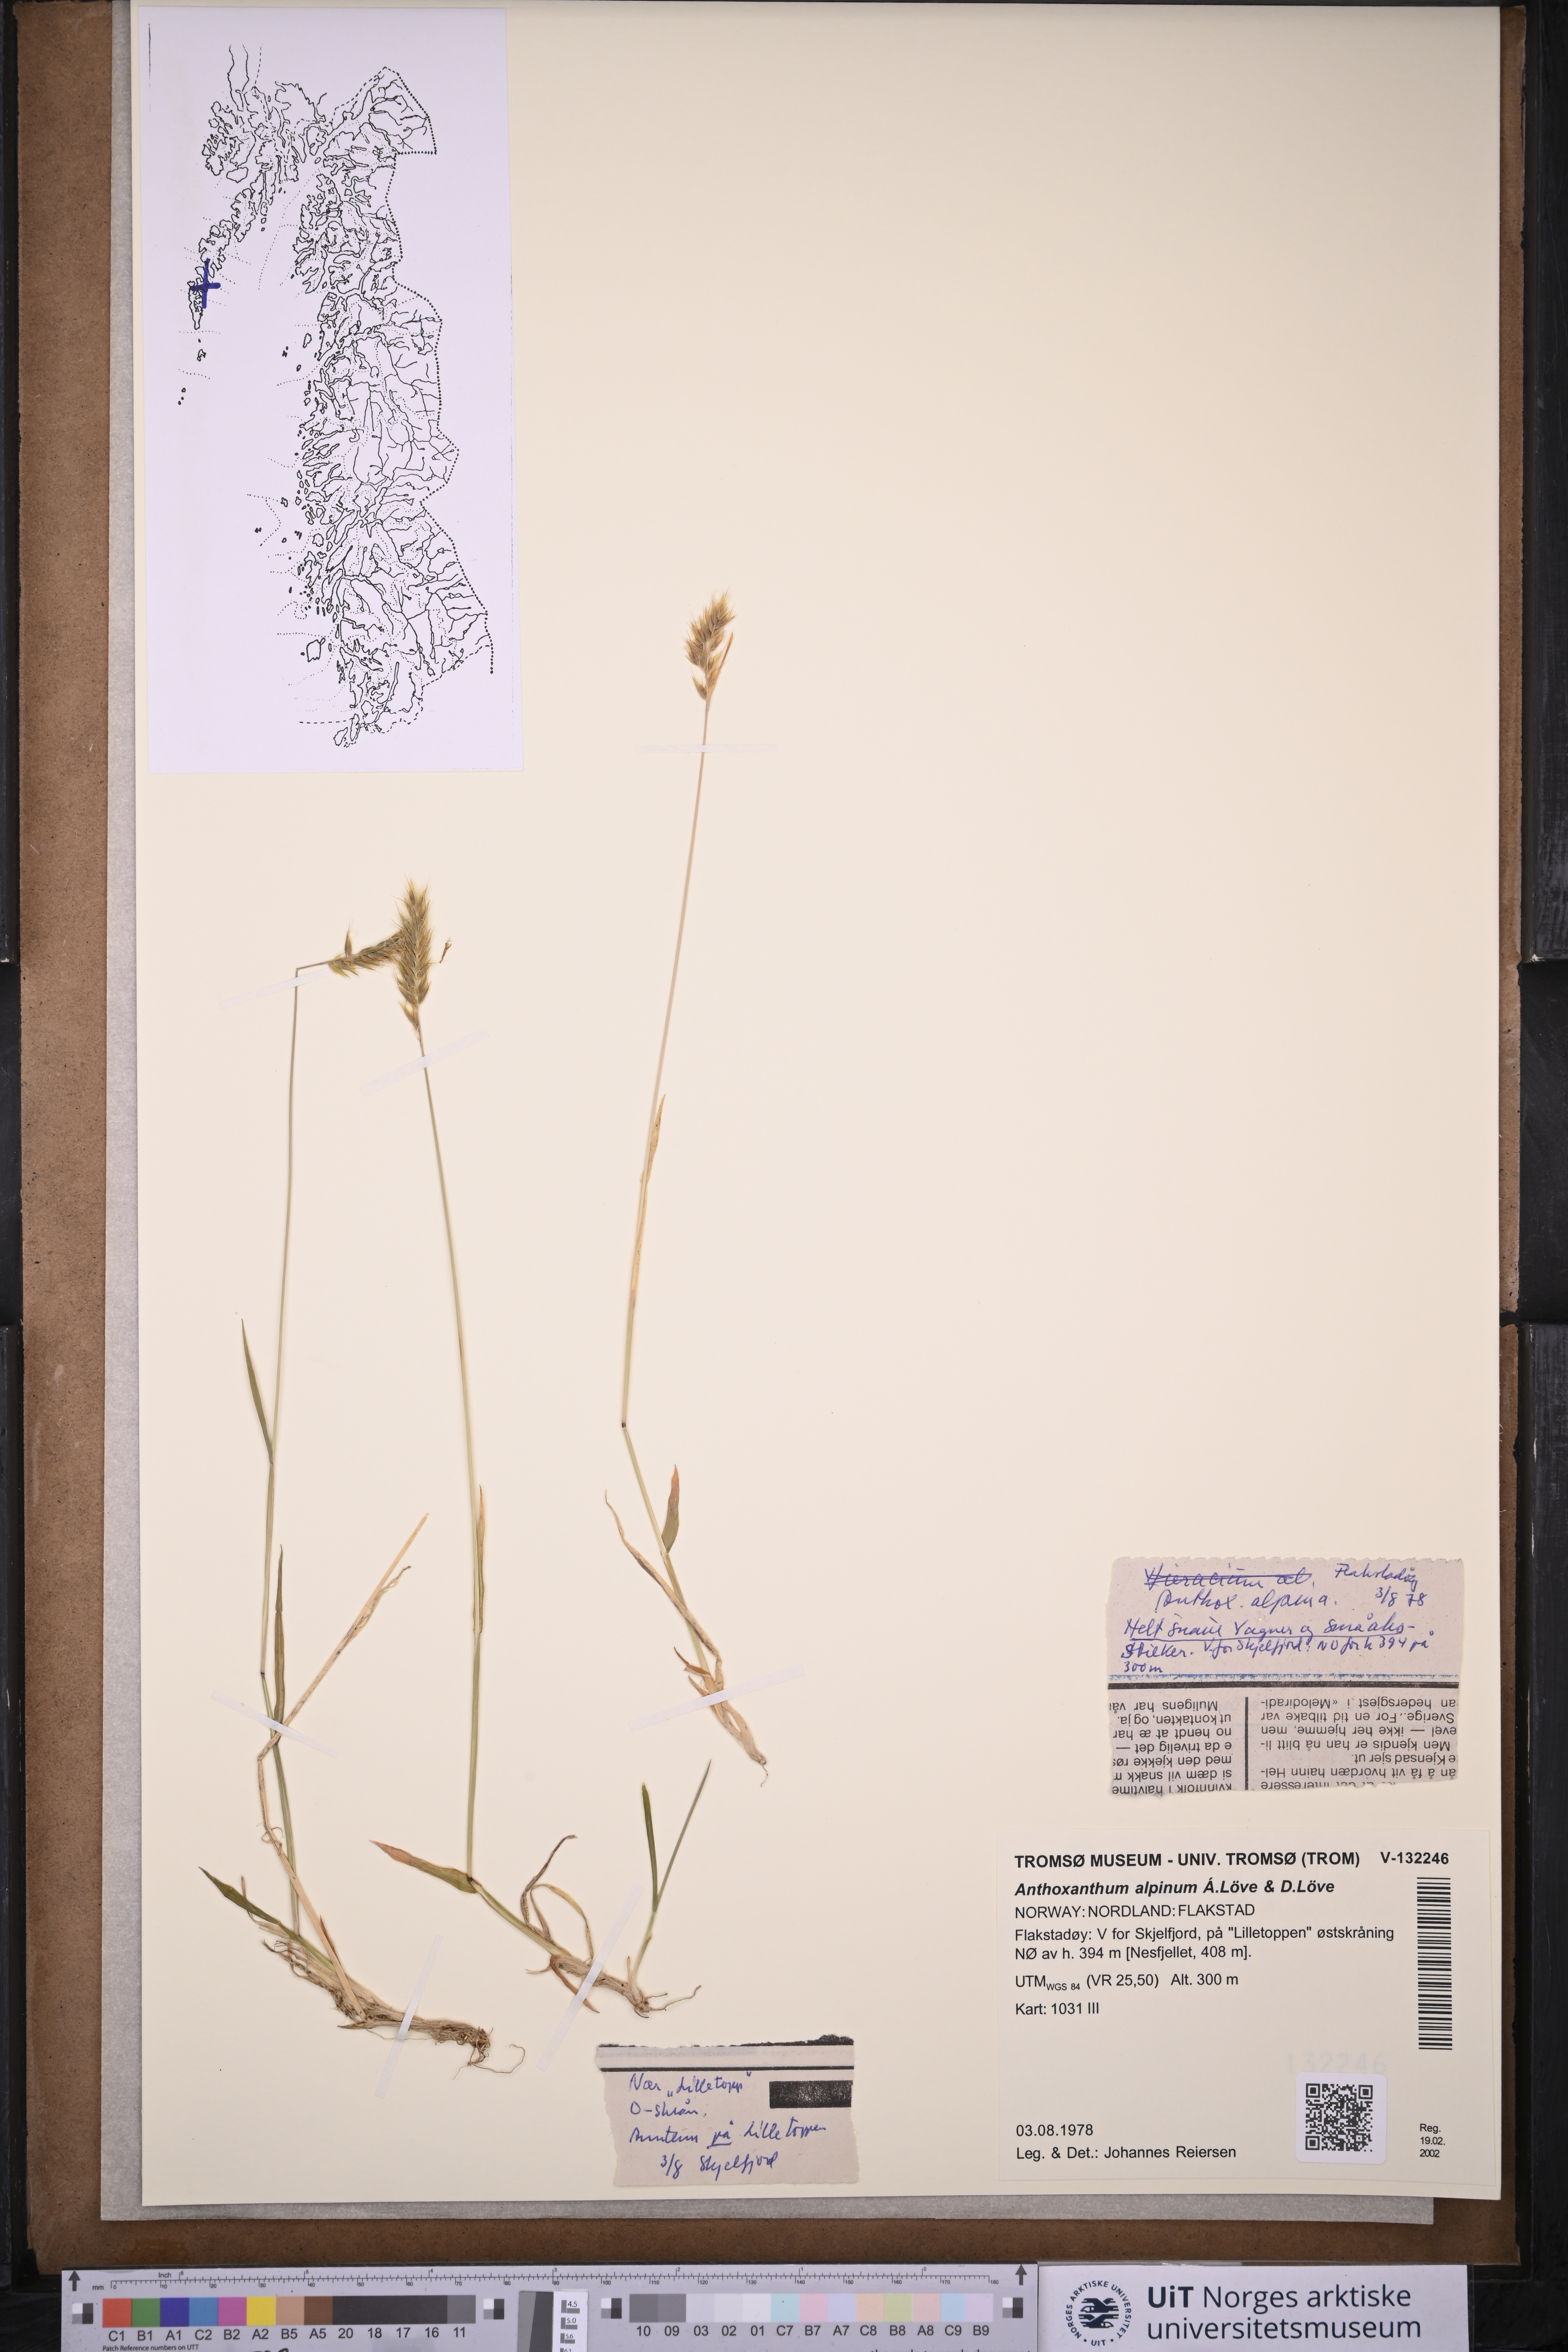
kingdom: Plantae
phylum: Tracheophyta
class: Liliopsida
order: Poales
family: Poaceae
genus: Anthoxanthum
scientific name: Anthoxanthum nipponicum
